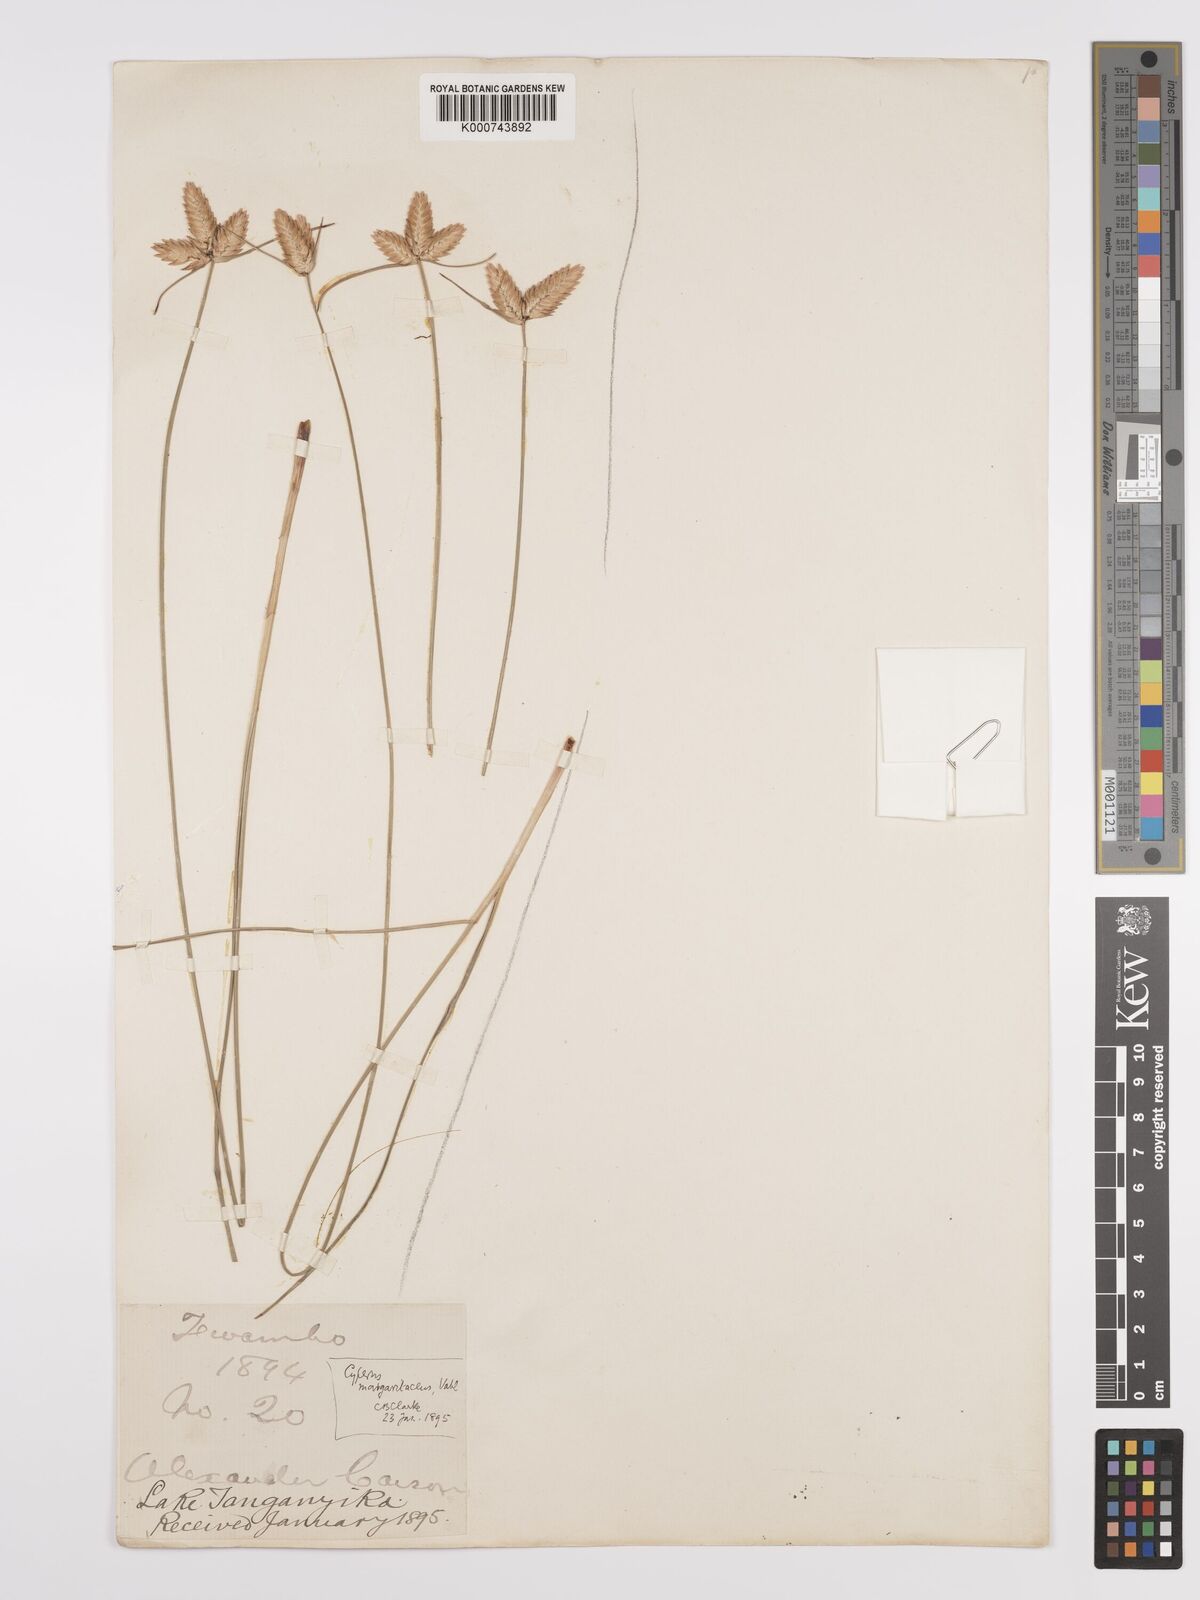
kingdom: Plantae
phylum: Tracheophyta
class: Liliopsida
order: Poales
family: Cyperaceae
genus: Cyperus
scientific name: Cyperus margaritaceus
